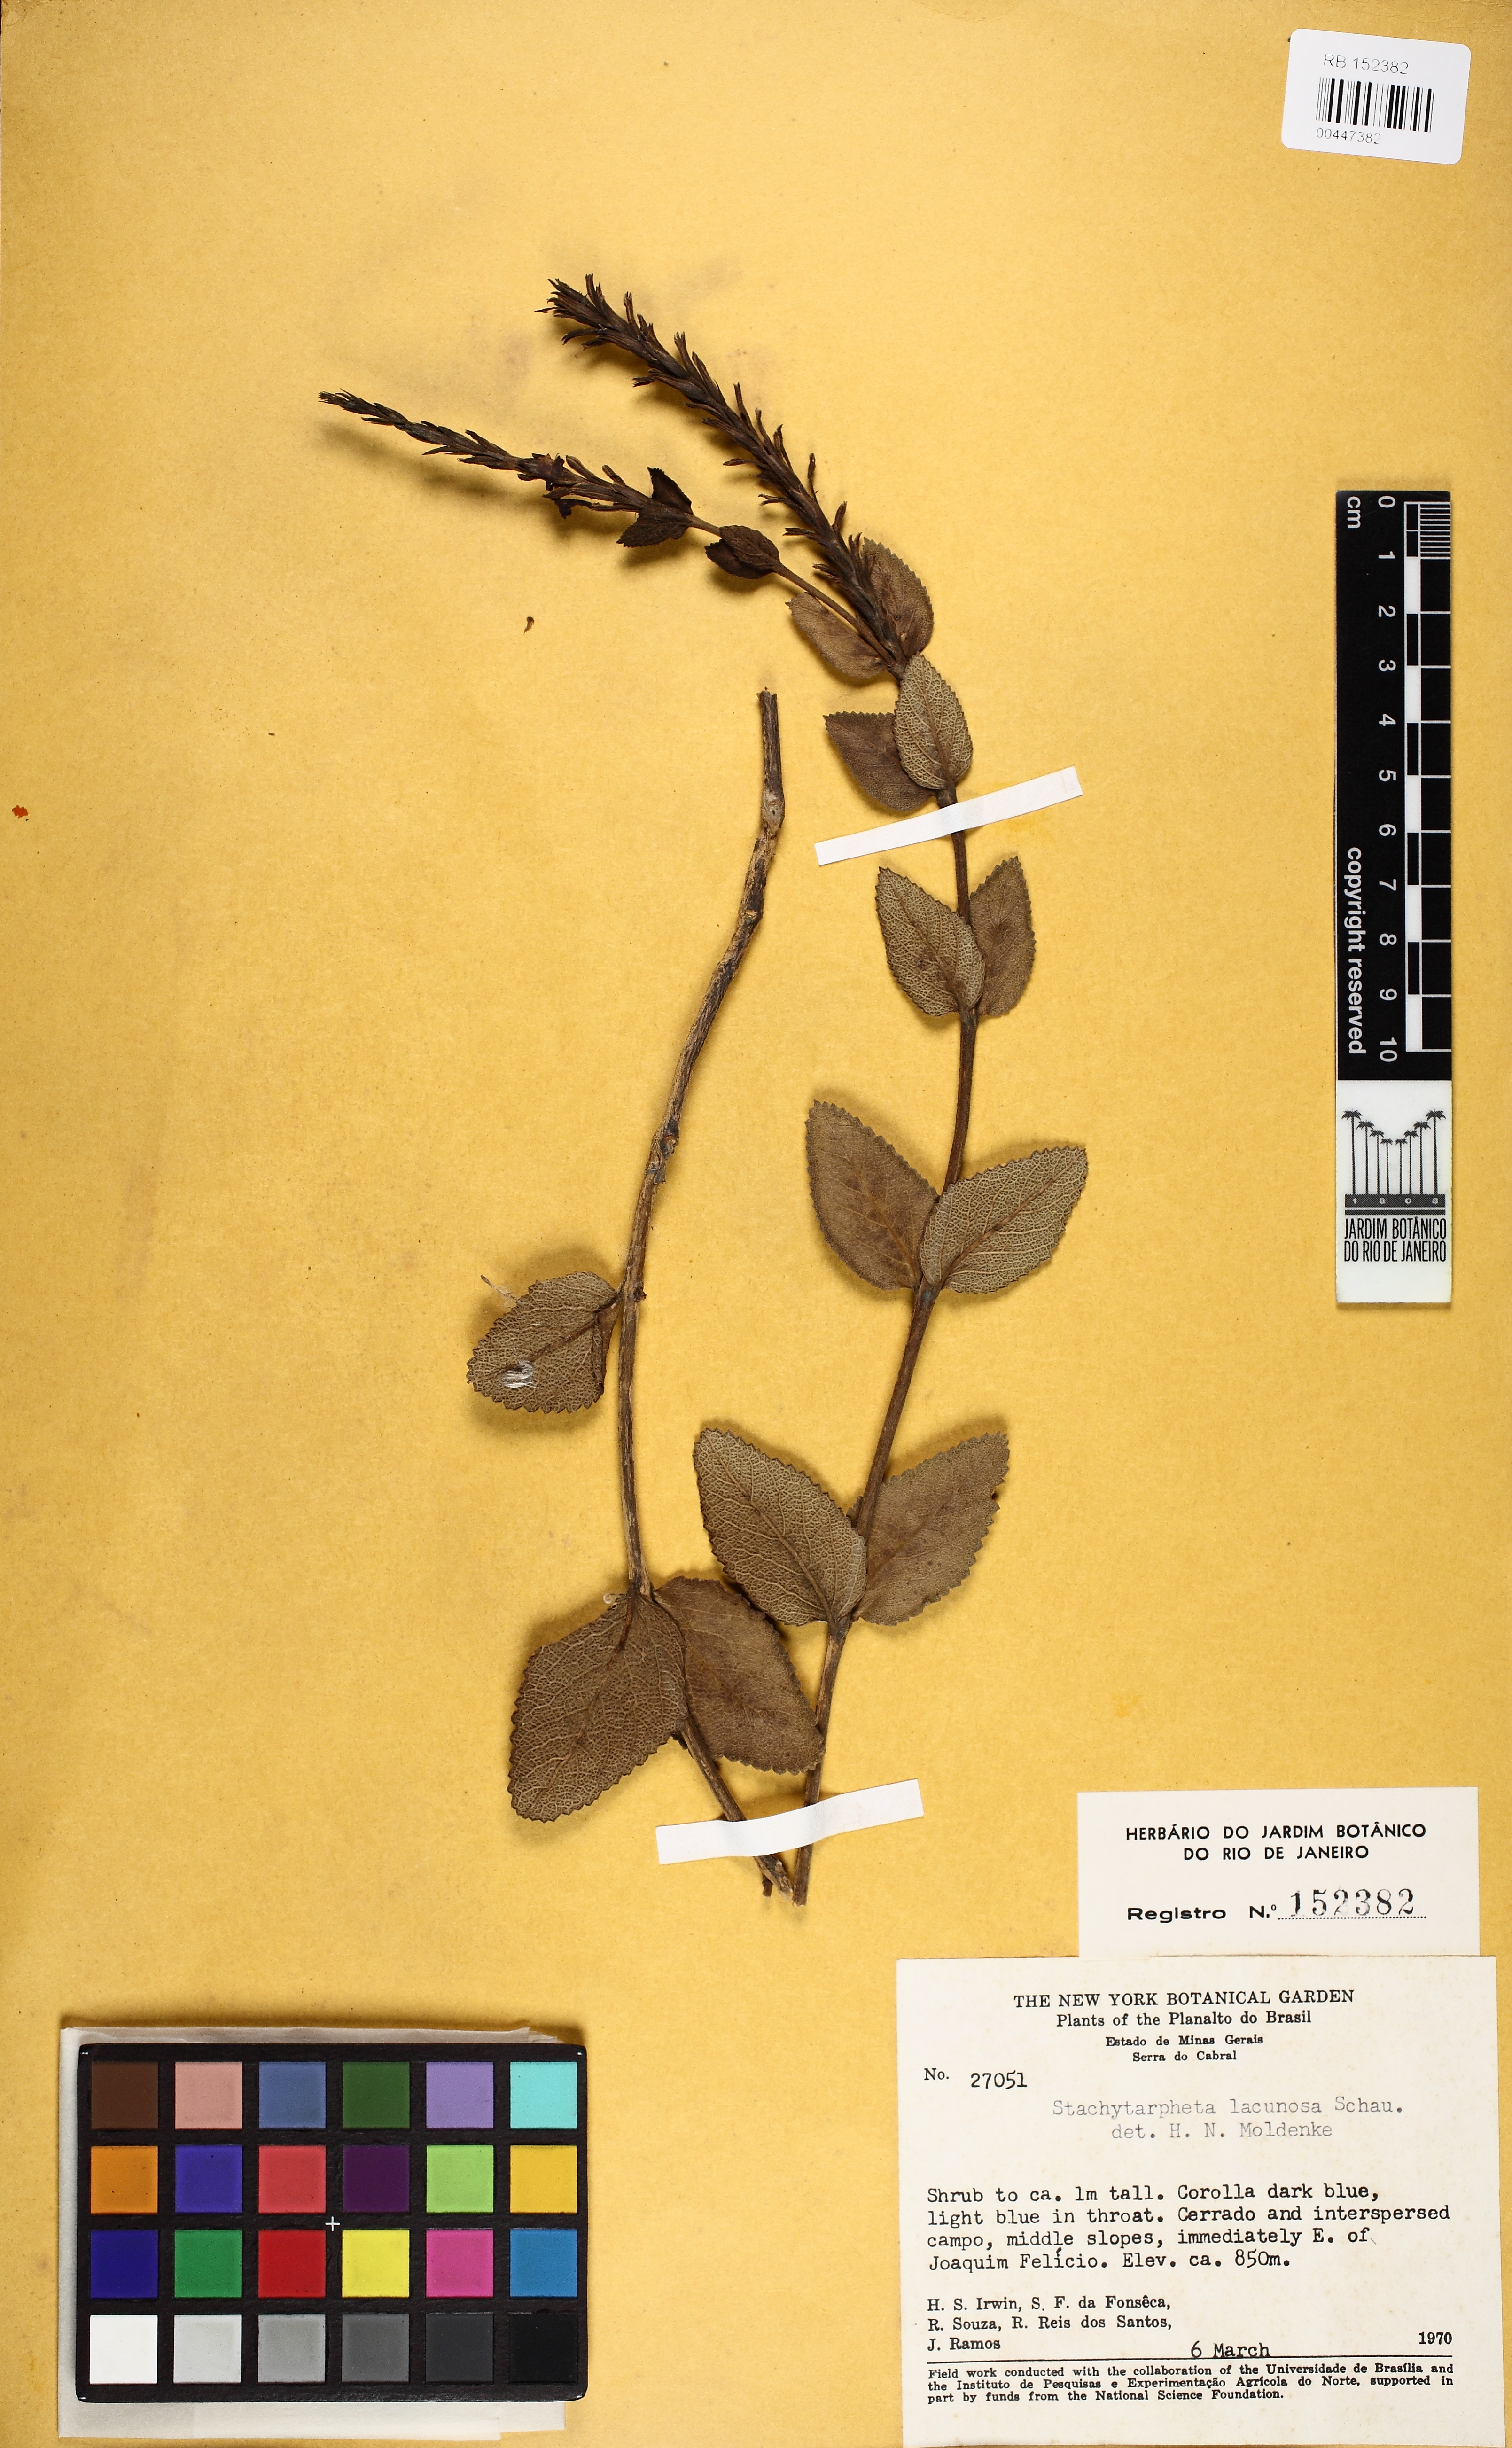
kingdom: Plantae
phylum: Tracheophyta
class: Magnoliopsida
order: Lamiales
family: Verbenaceae
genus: Stachytarpheta
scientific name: Stachytarpheta reticulata
